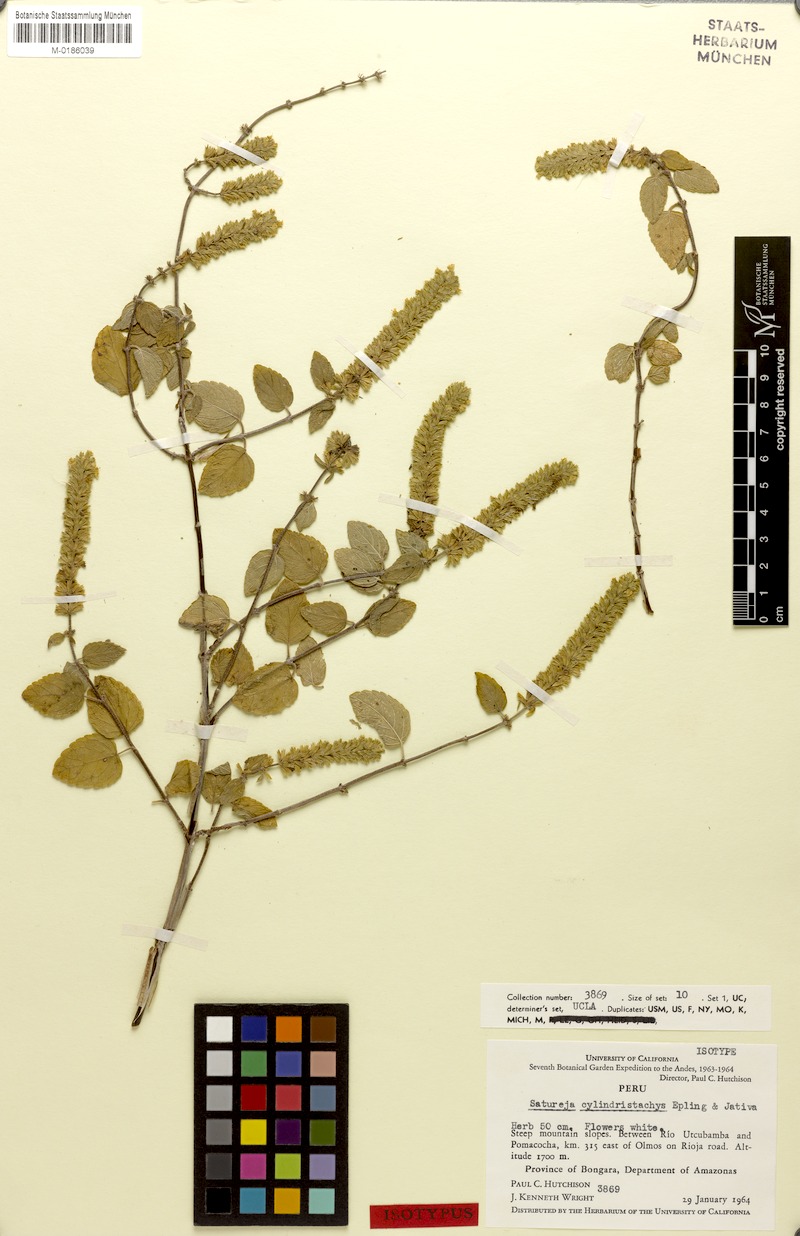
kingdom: Plantae
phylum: Tracheophyta
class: Magnoliopsida
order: Lamiales
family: Lamiaceae
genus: Clinopodium
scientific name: Clinopodium cylindristachys
